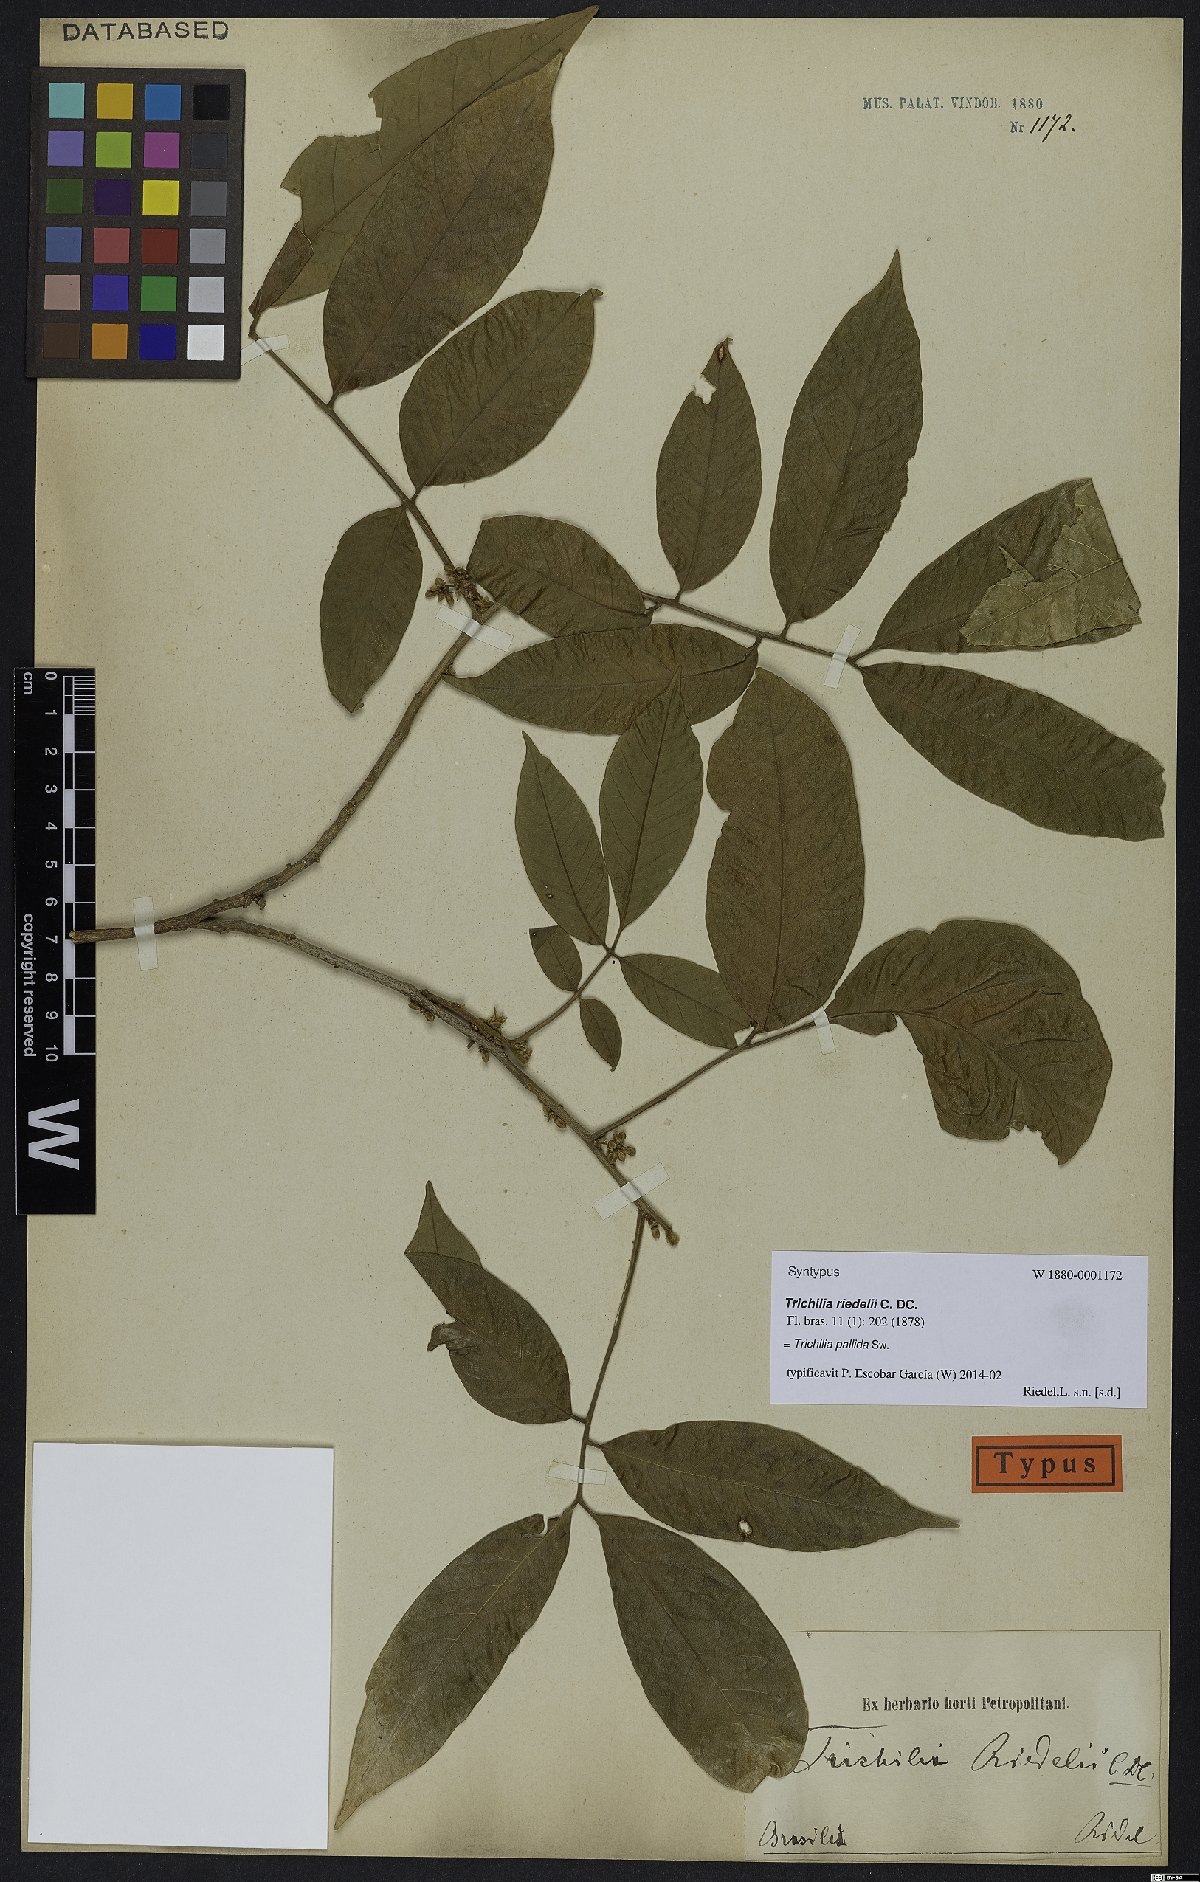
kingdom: Plantae
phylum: Tracheophyta
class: Magnoliopsida
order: Sapindales
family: Meliaceae
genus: Trichilia
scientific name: Trichilia pallida
